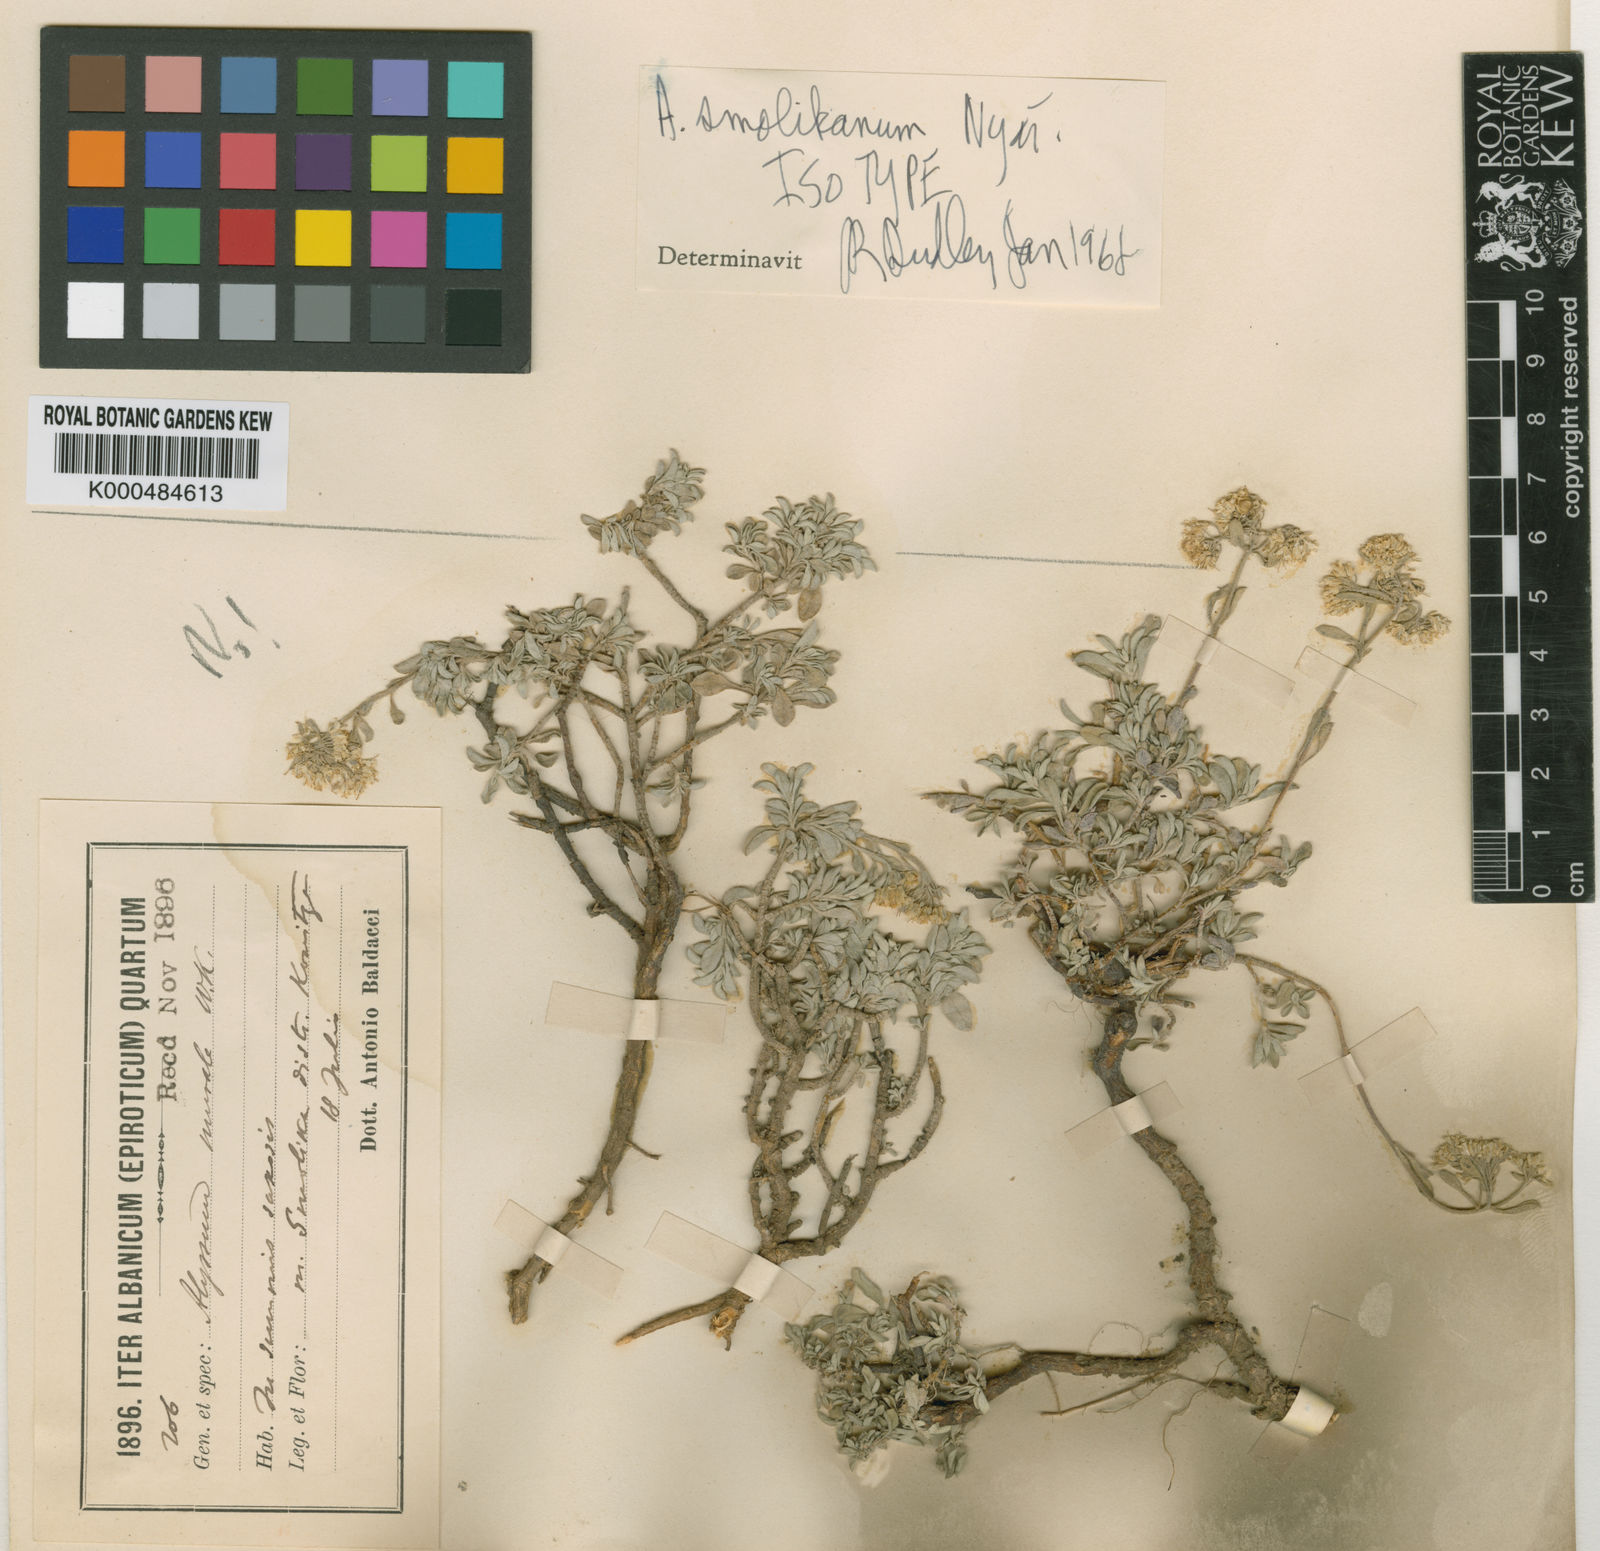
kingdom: Plantae
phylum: Tracheophyta
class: Magnoliopsida
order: Brassicales
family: Brassicaceae
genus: Odontarrhena
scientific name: Odontarrhena smolikana
